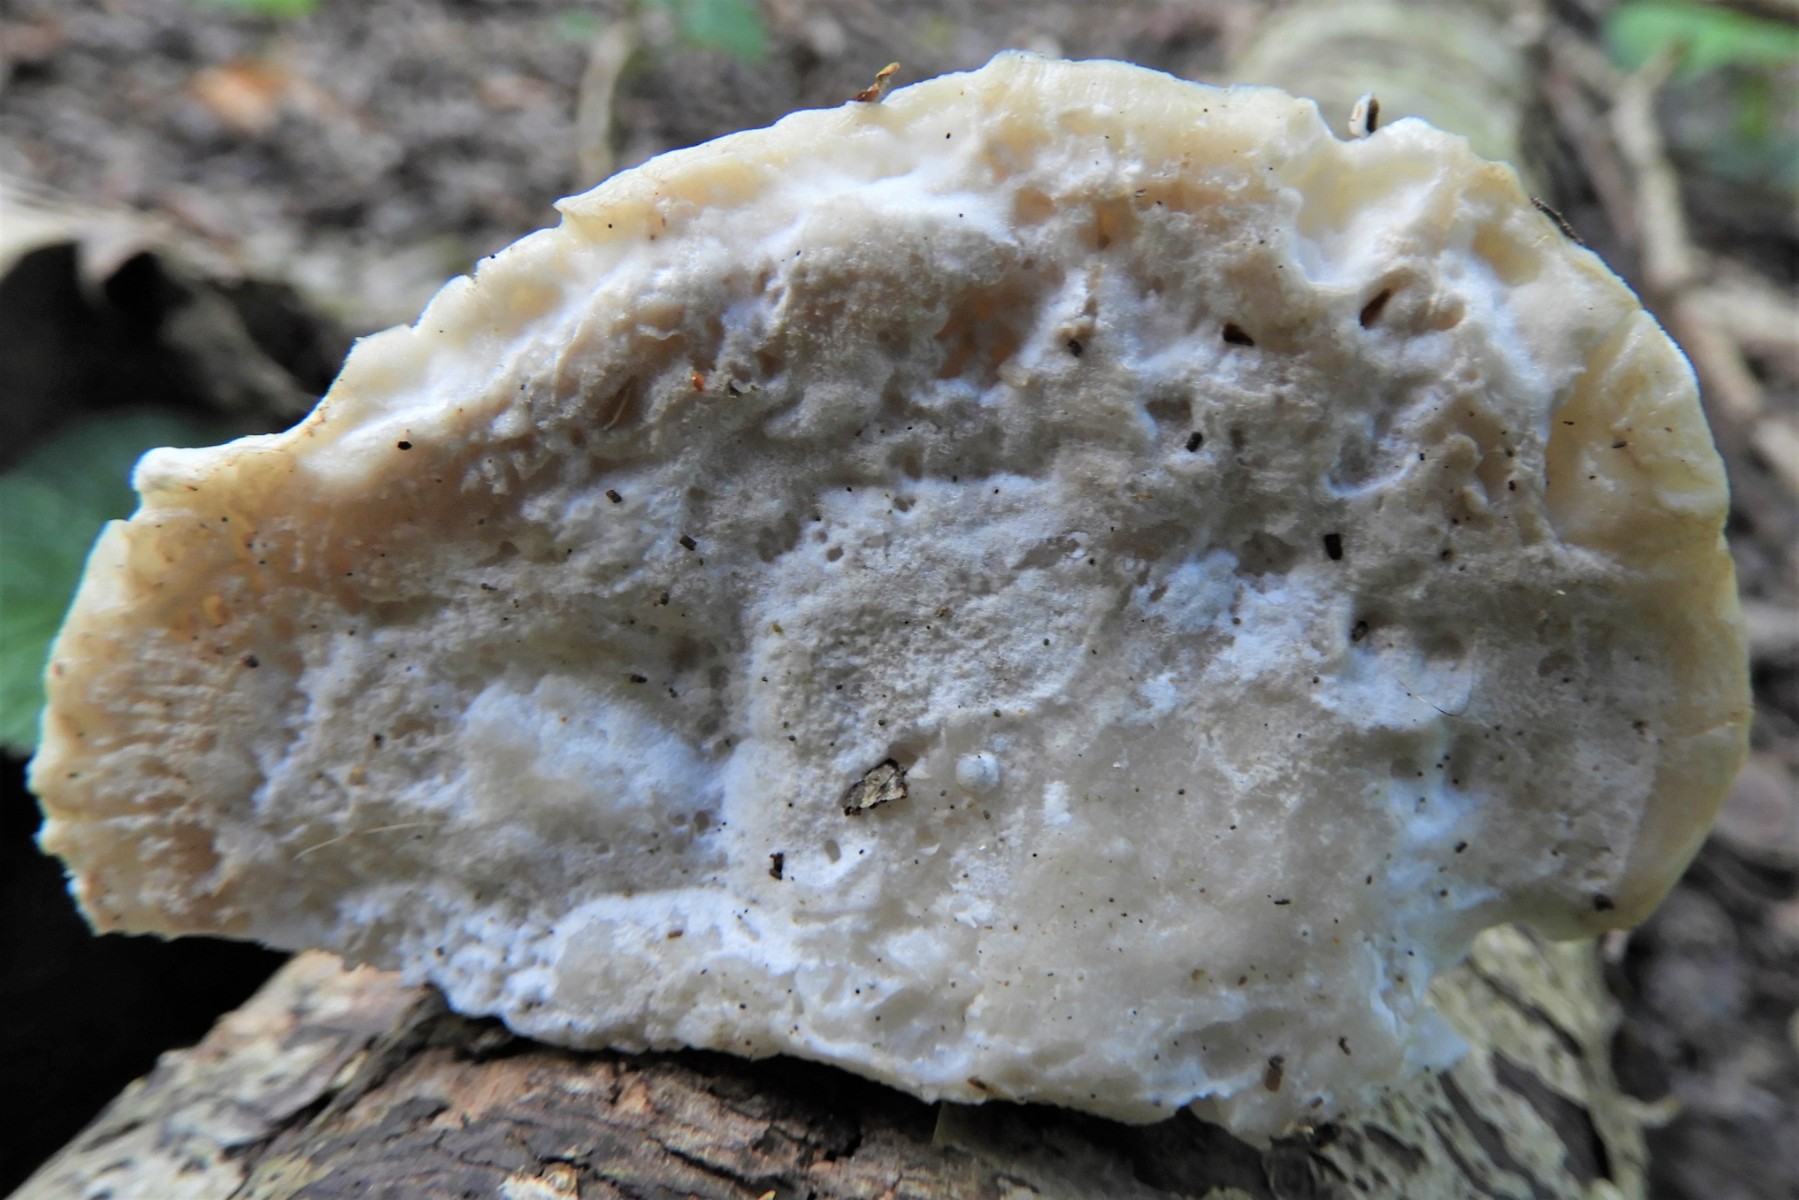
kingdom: Fungi
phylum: Basidiomycota
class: Agaricomycetes
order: Polyporales
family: Incrustoporiaceae
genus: Tyromyces
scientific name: Tyromyces lacteus
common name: mælkehvid kødporesvamp
